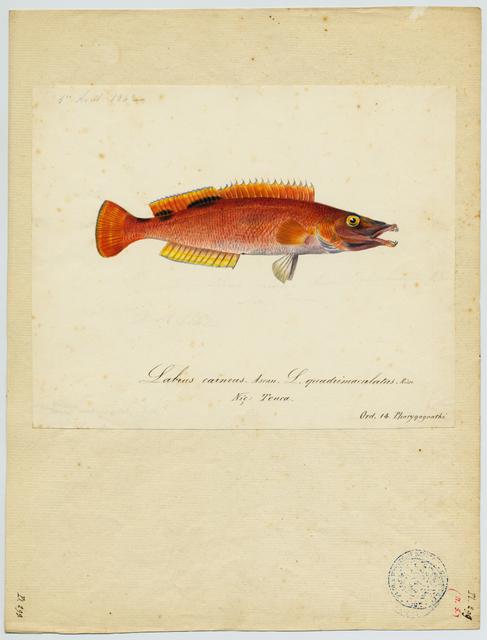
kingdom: Animalia
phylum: Chordata
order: Perciformes
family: Cichlidae
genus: Cichlasoma
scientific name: Cichlasoma bimaculatum
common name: Black acara
